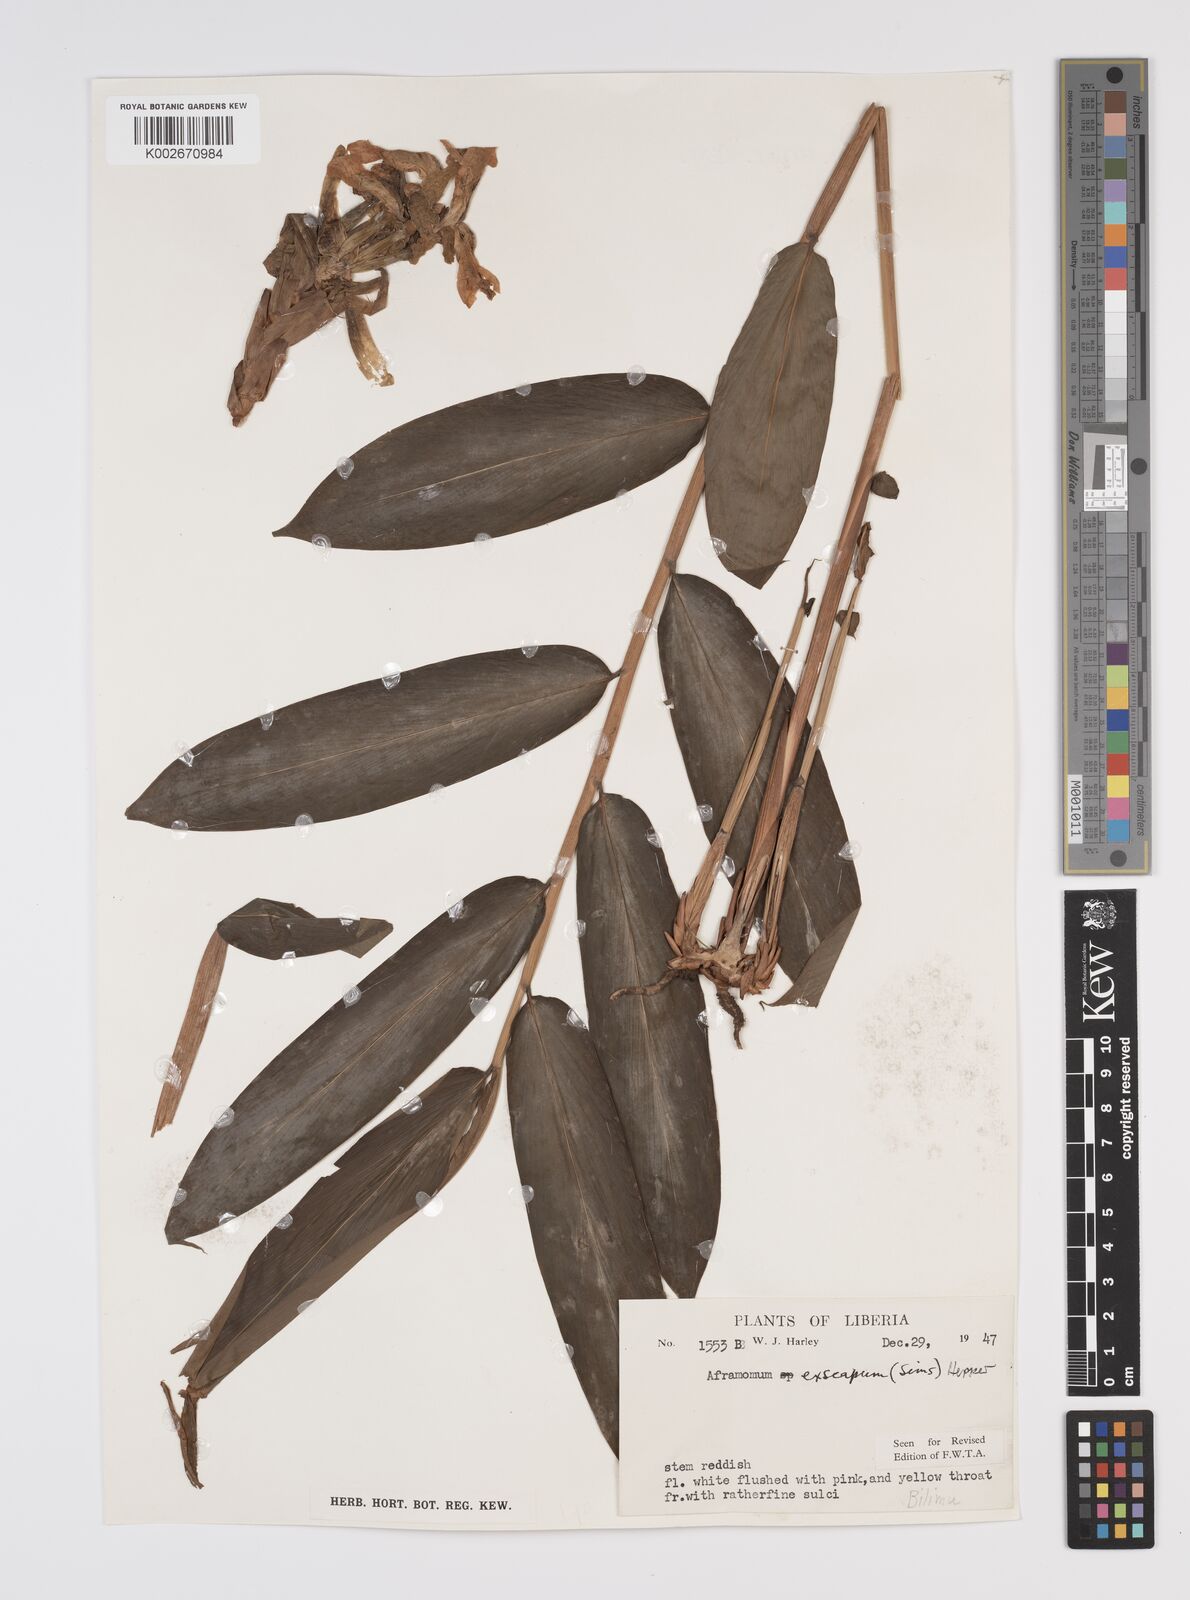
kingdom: Plantae
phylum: Tracheophyta
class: Liliopsida
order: Zingiberales
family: Zingiberaceae
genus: Aframomum
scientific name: Aframomum exscapum
